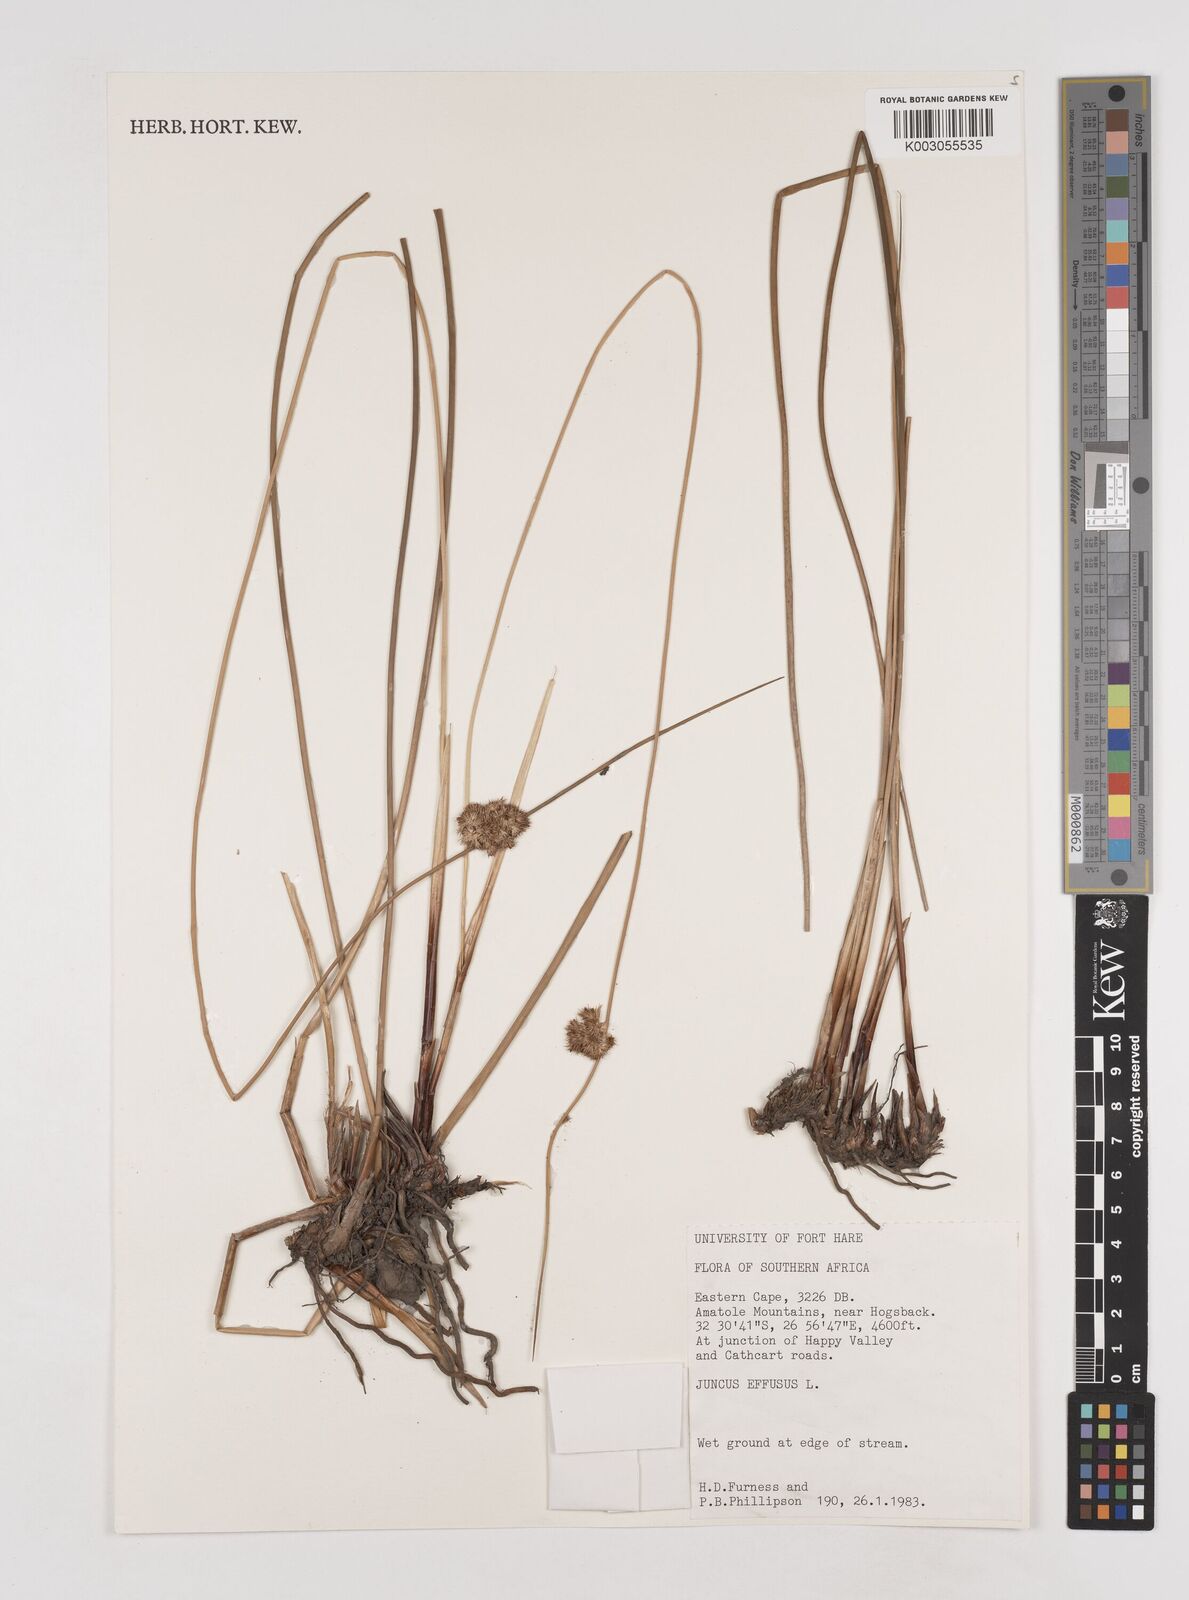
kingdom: Plantae
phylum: Tracheophyta
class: Liliopsida
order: Poales
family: Juncaceae
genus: Juncus
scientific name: Juncus effusus
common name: Soft rush
